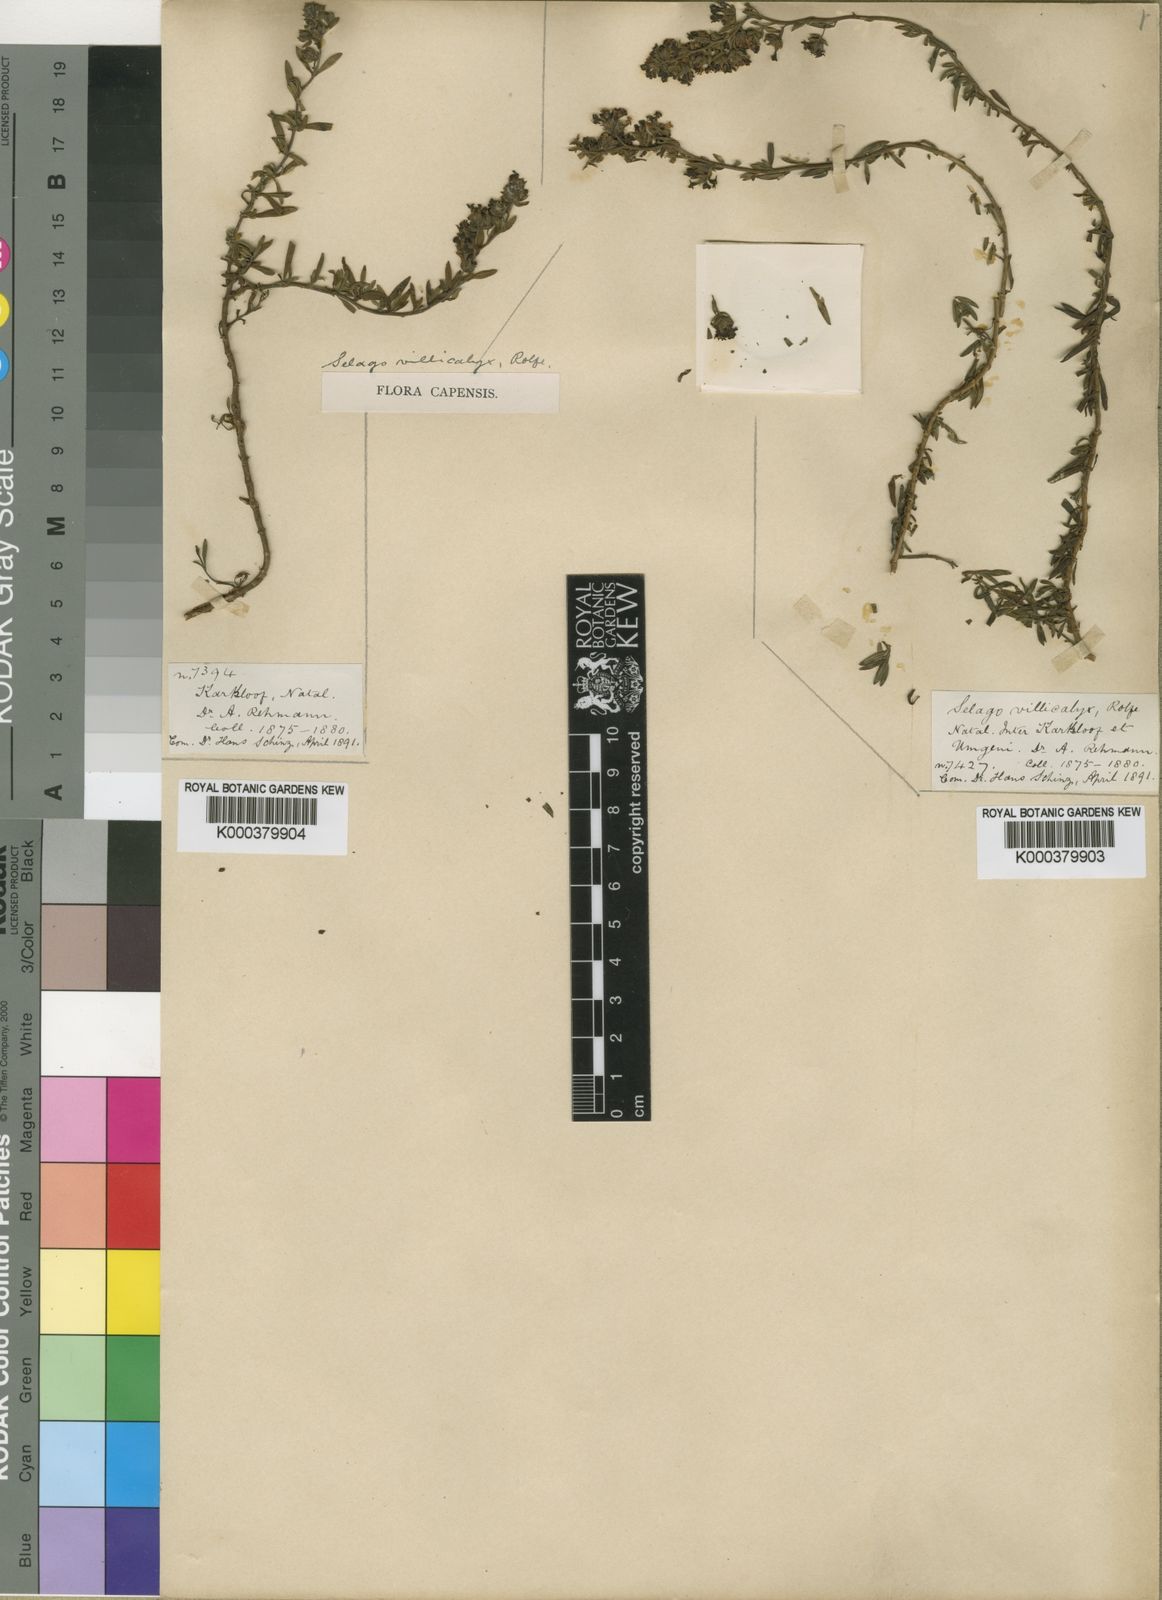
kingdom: Plantae
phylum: Tracheophyta
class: Magnoliopsida
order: Lamiales
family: Scrophulariaceae
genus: Selago
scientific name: Selago pachypoda
